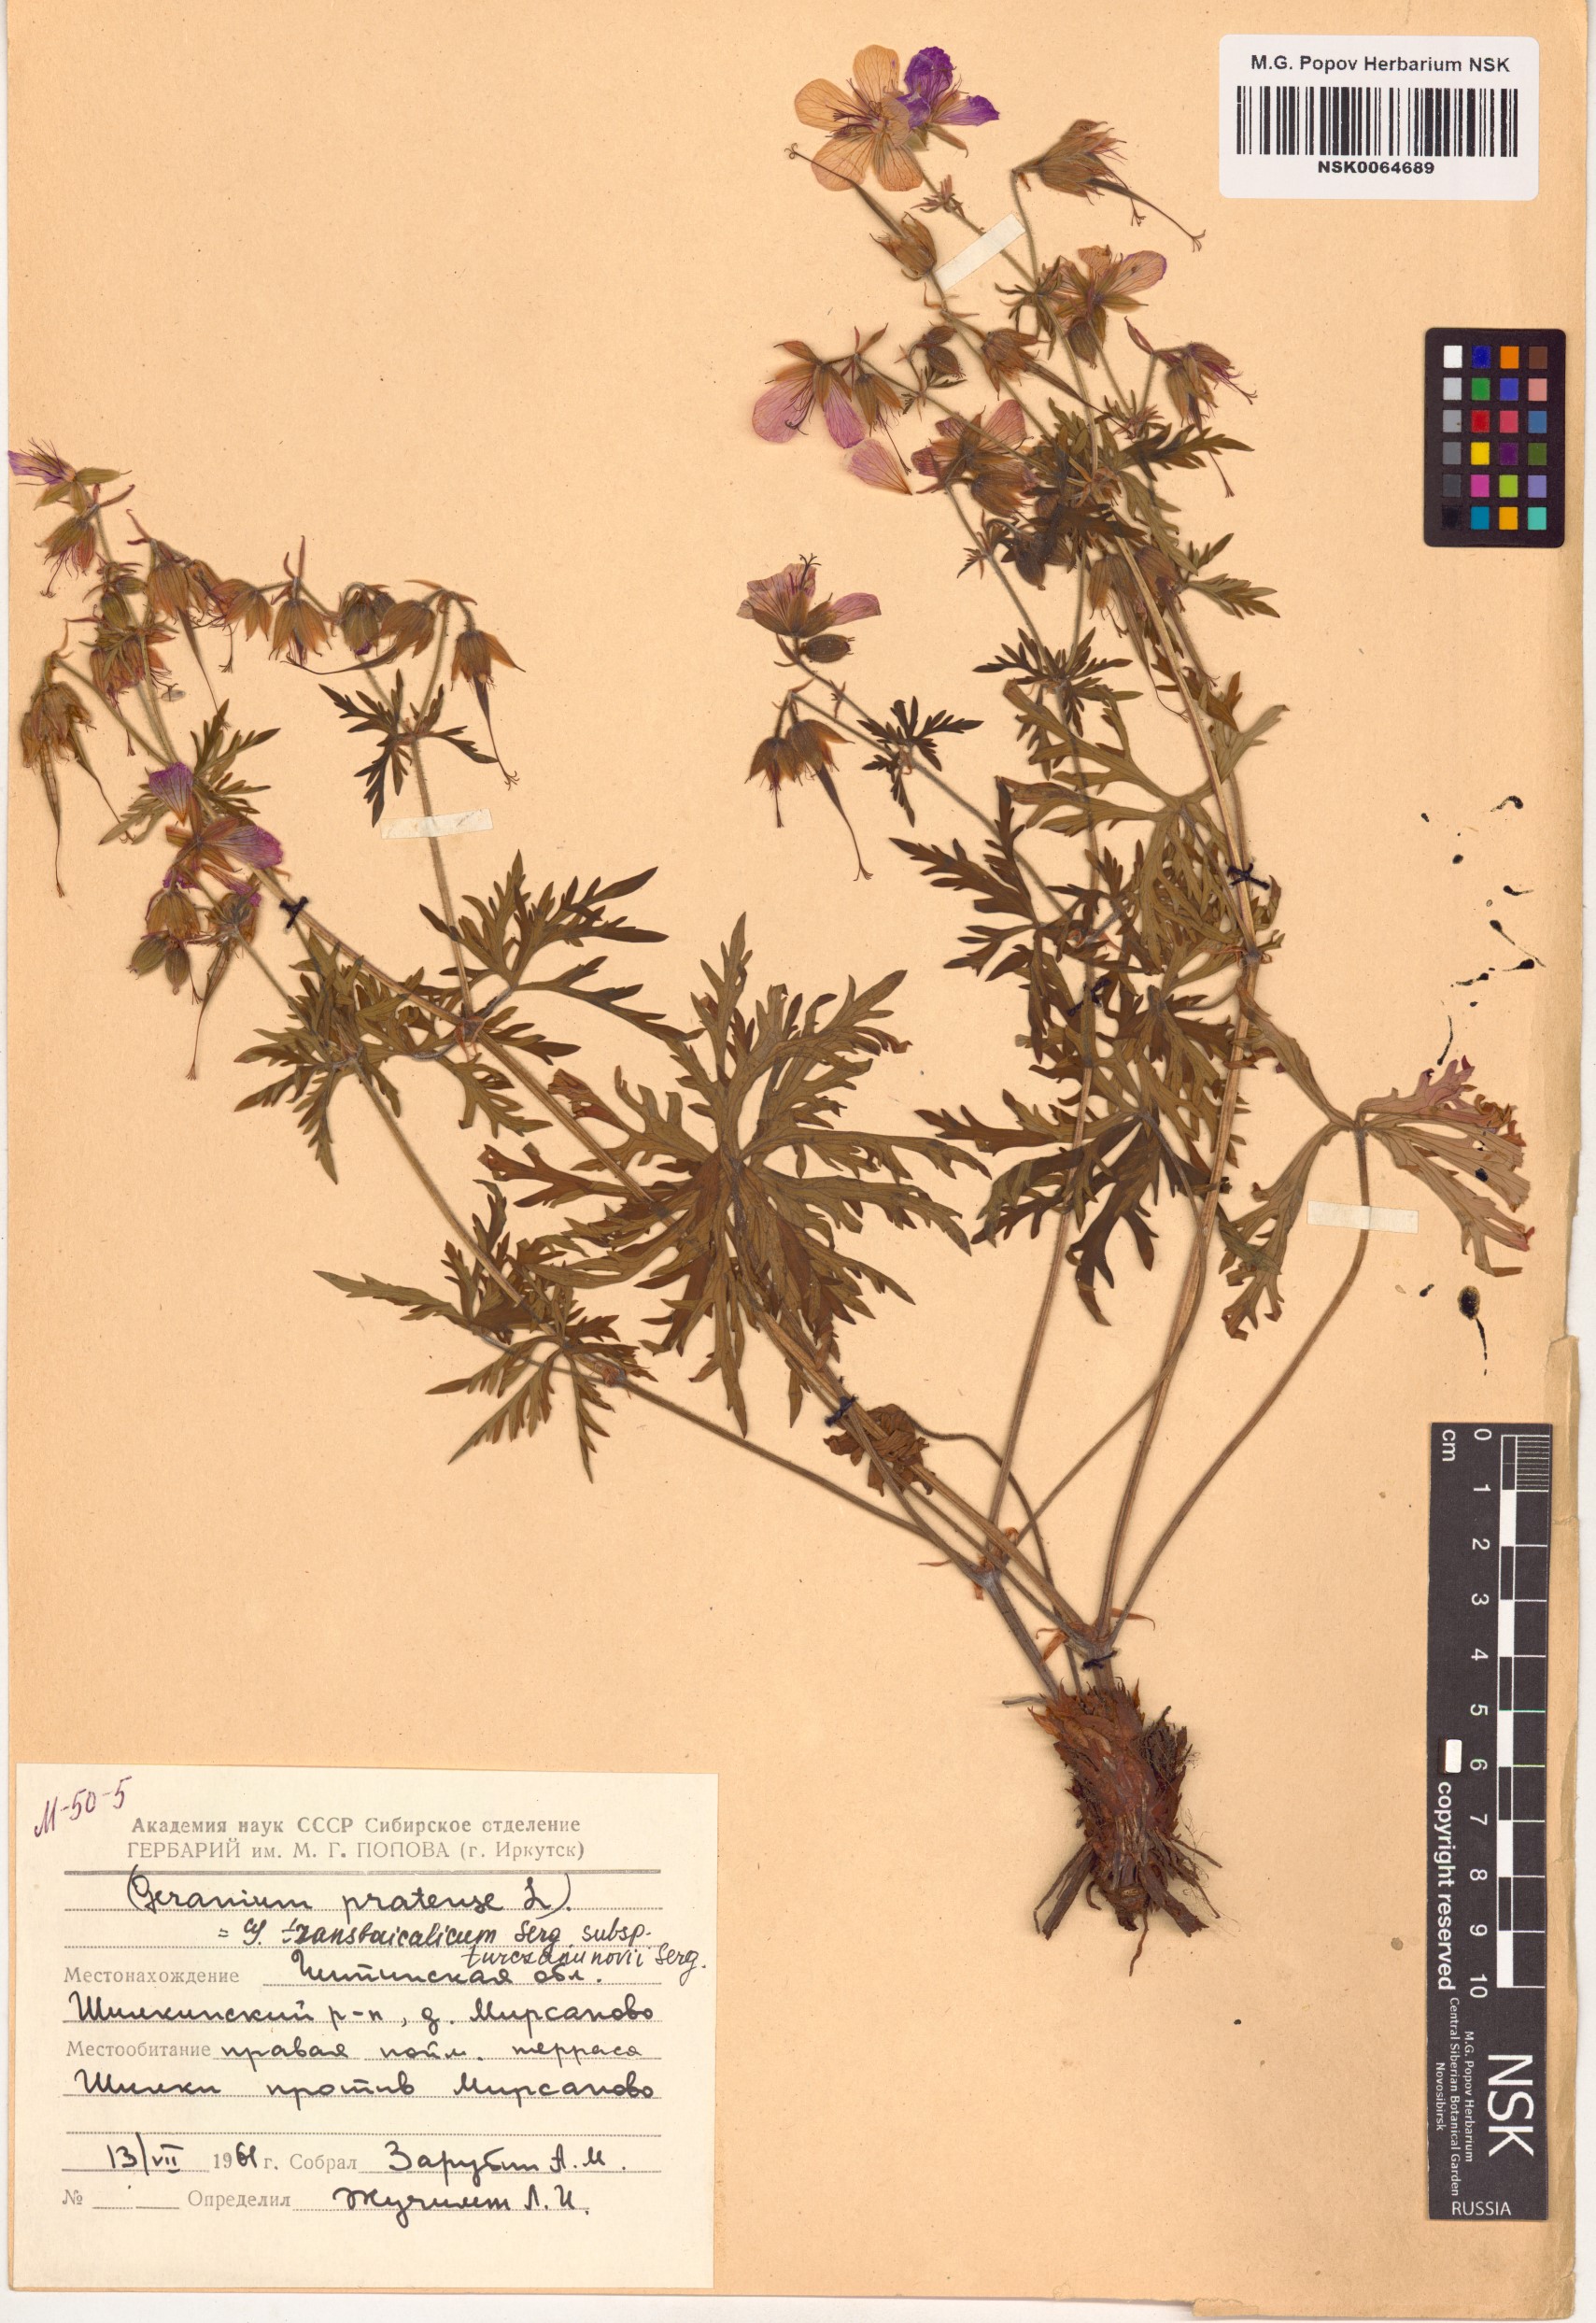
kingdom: Plantae
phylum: Tracheophyta
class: Magnoliopsida
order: Geraniales
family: Geraniaceae
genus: Geranium
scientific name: Geranium pratense
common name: Meadow crane's-bill
